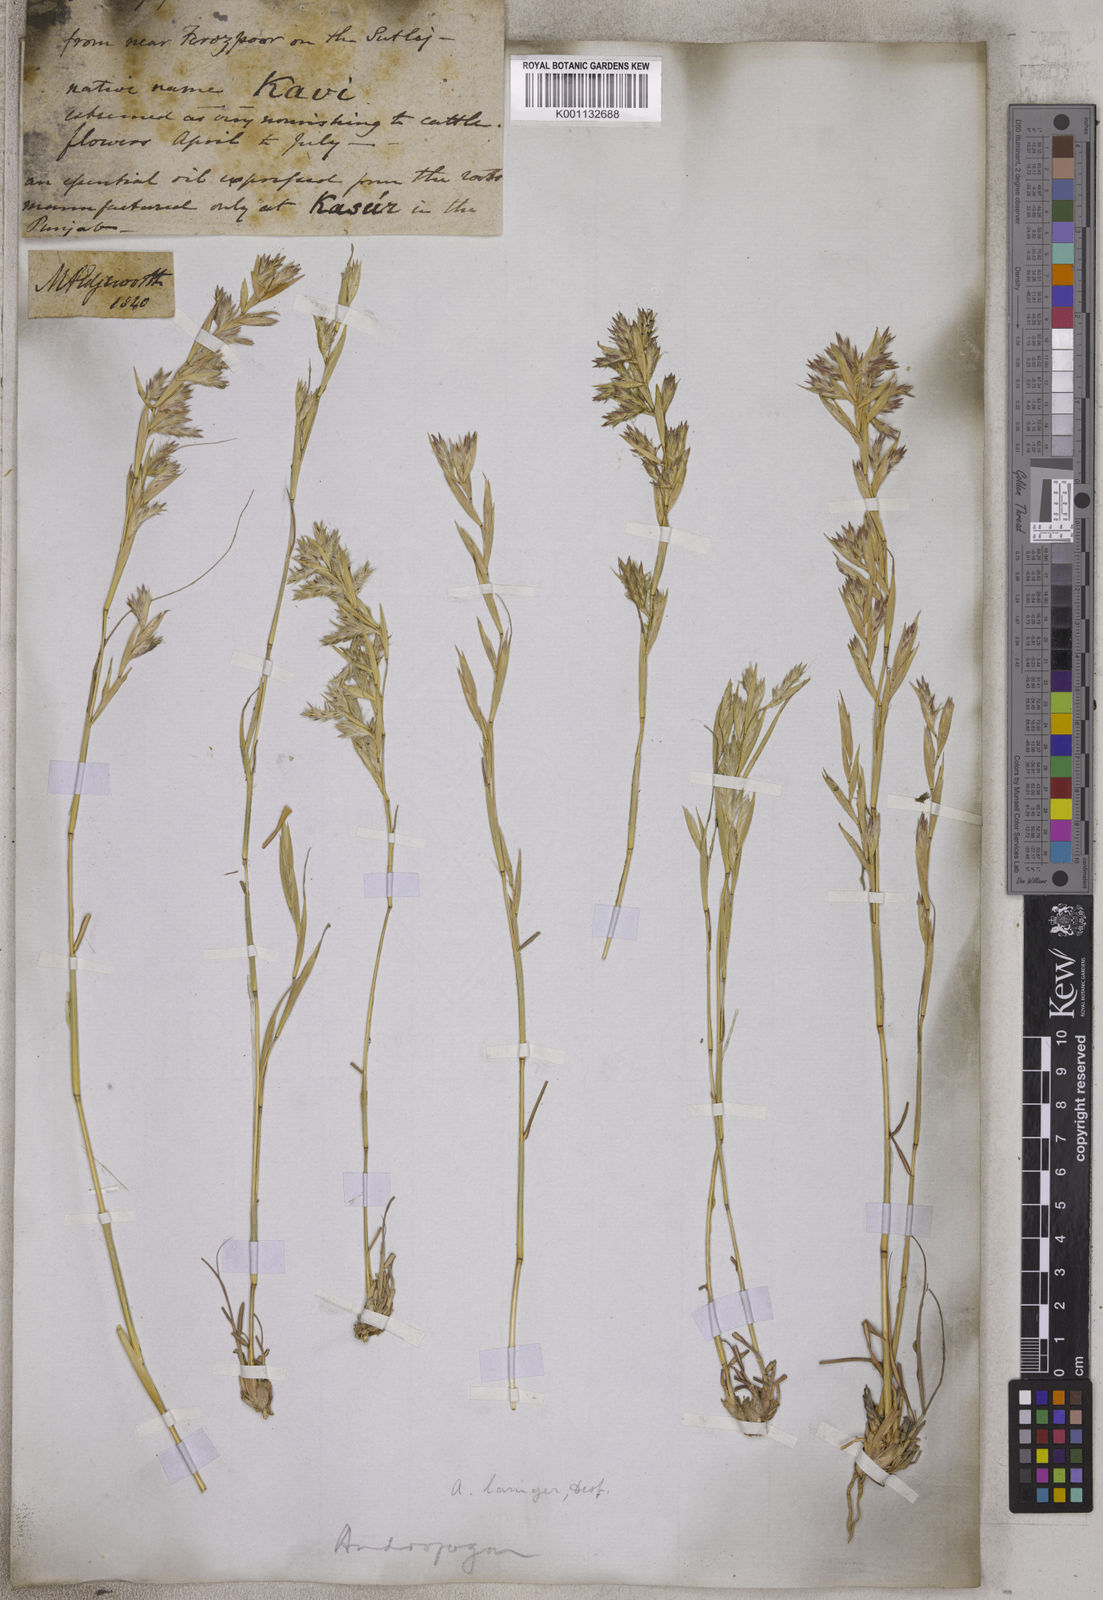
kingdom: Plantae
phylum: Tracheophyta
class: Liliopsida
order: Poales
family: Poaceae
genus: Cymbopogon
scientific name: Cymbopogon iwarancusa
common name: Iwarancusa grass
